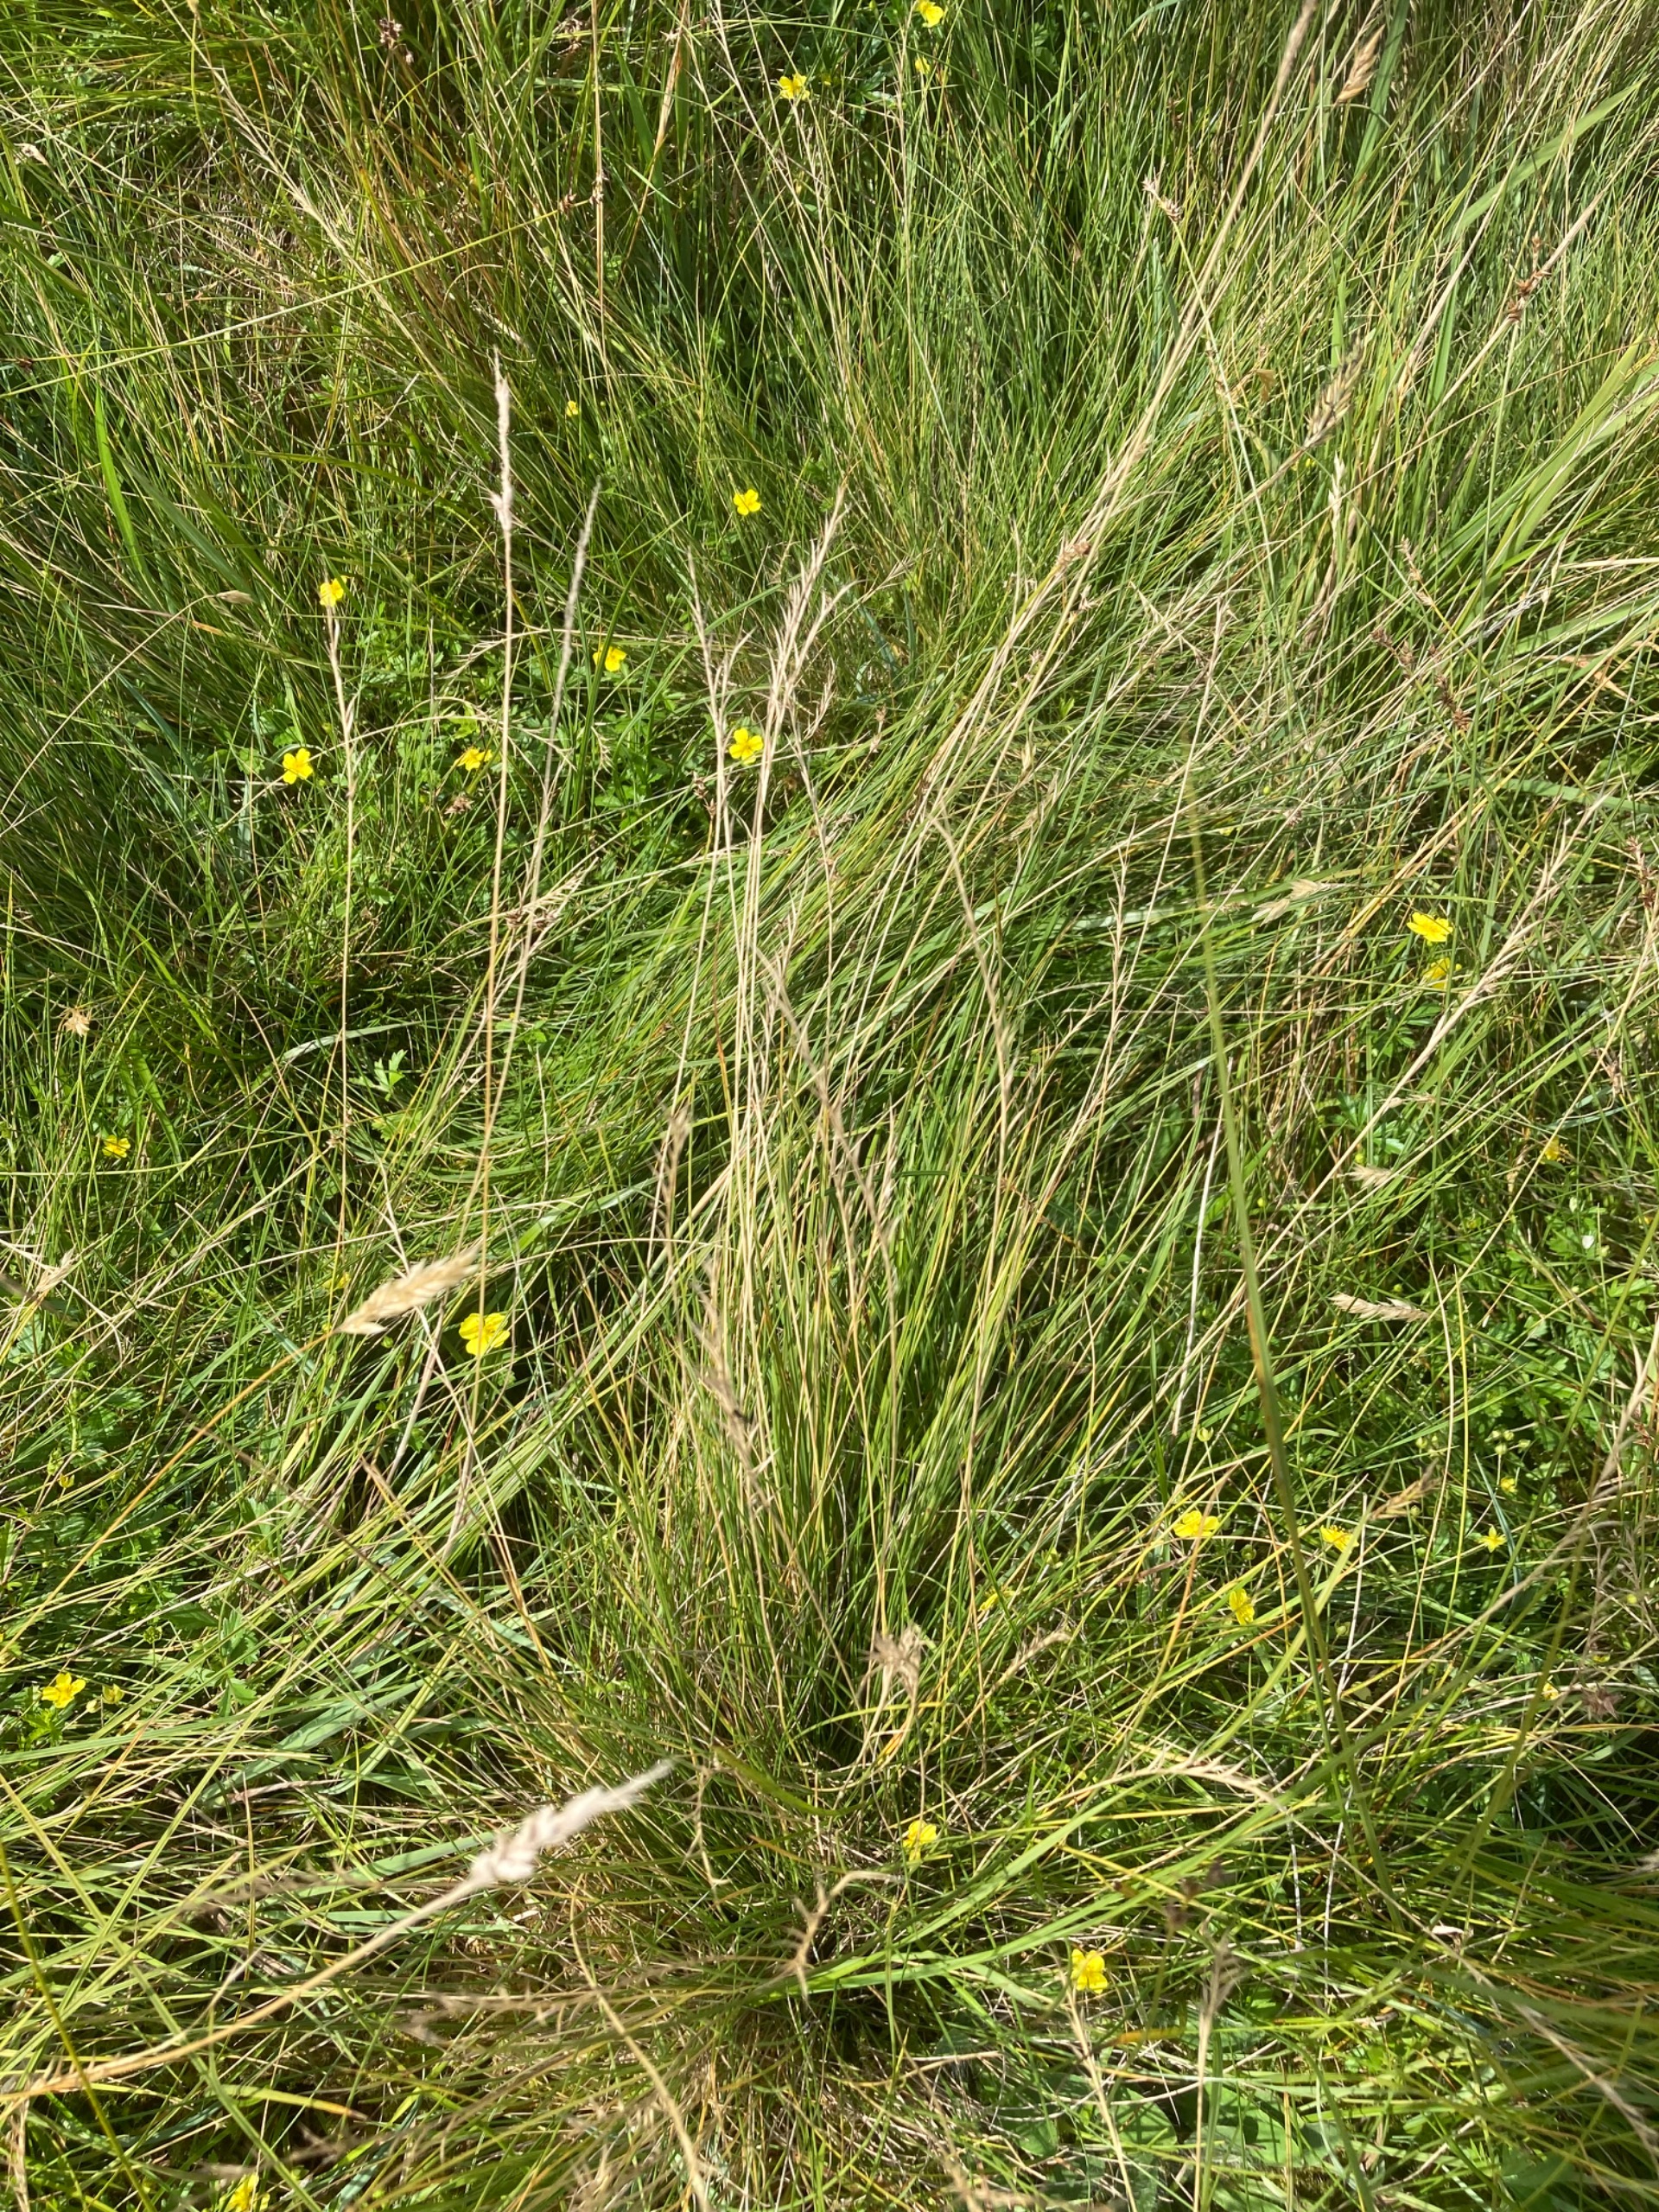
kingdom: Plantae
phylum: Tracheophyta
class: Liliopsida
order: Poales
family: Poaceae
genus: Nardus
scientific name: Nardus stricta
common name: Katteskæg
